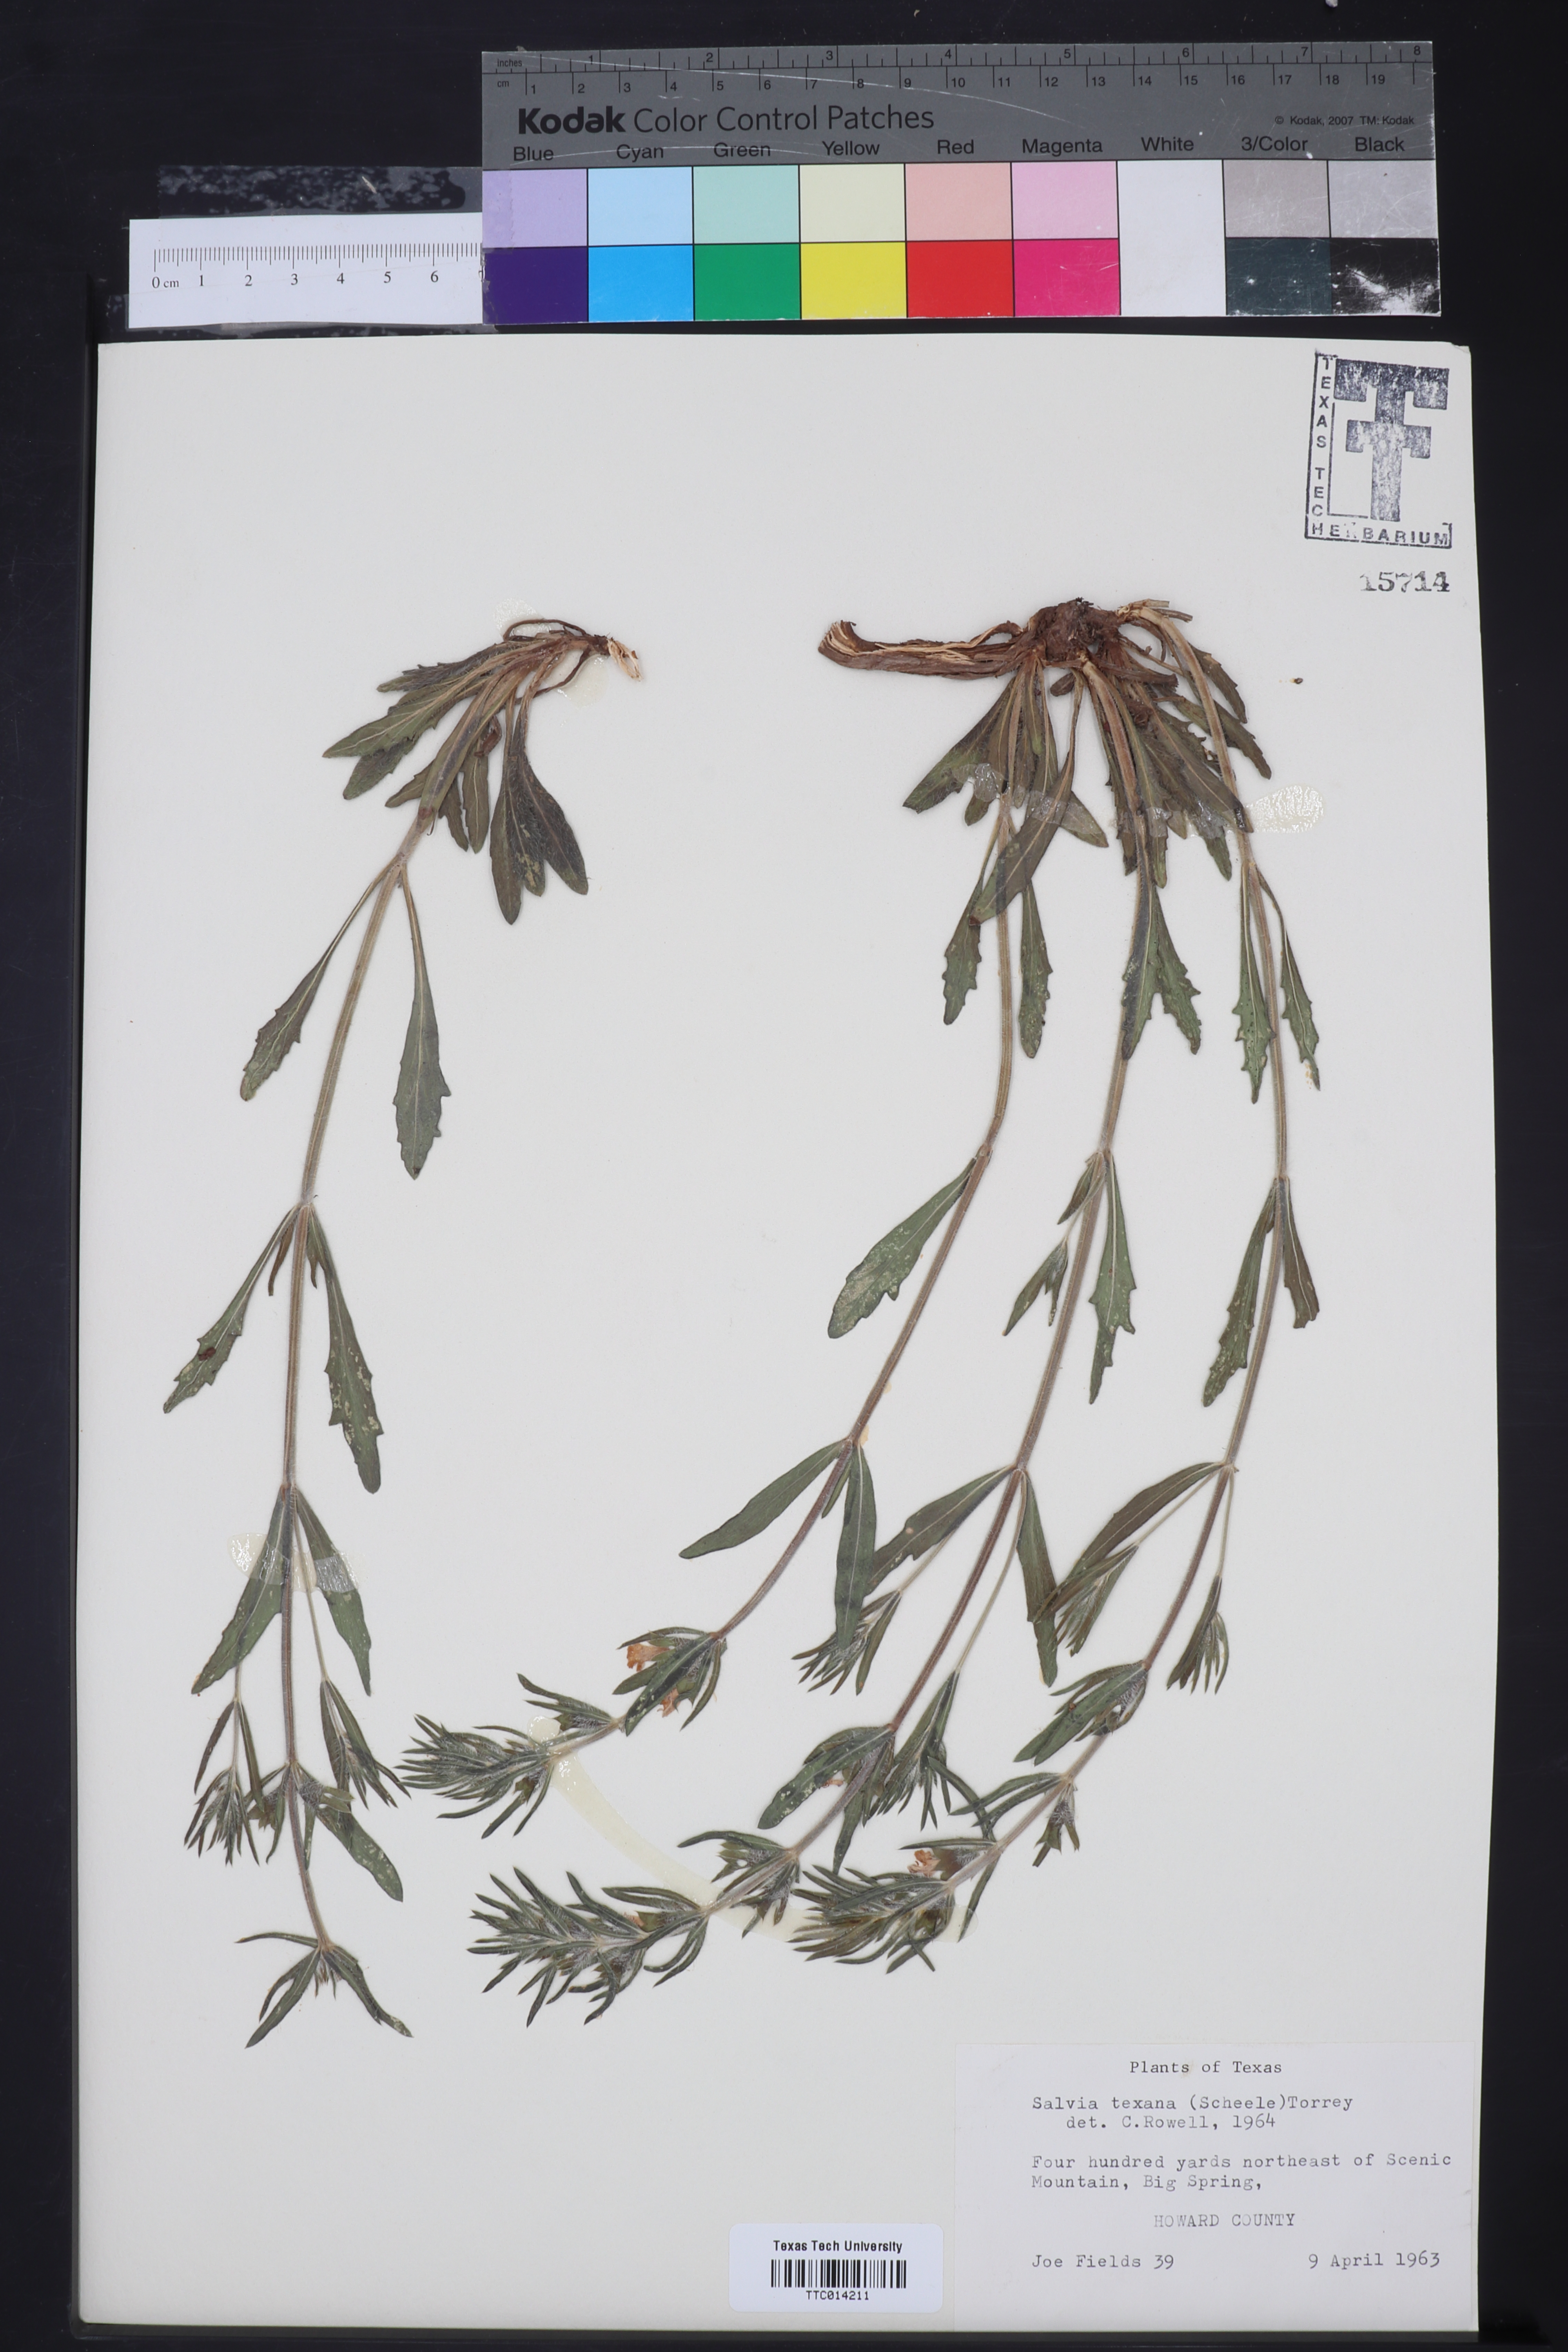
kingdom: Plantae
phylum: Tracheophyta
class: Magnoliopsida
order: Lamiales
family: Lamiaceae
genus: Salvia
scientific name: Salvia texana
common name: Texas sage
